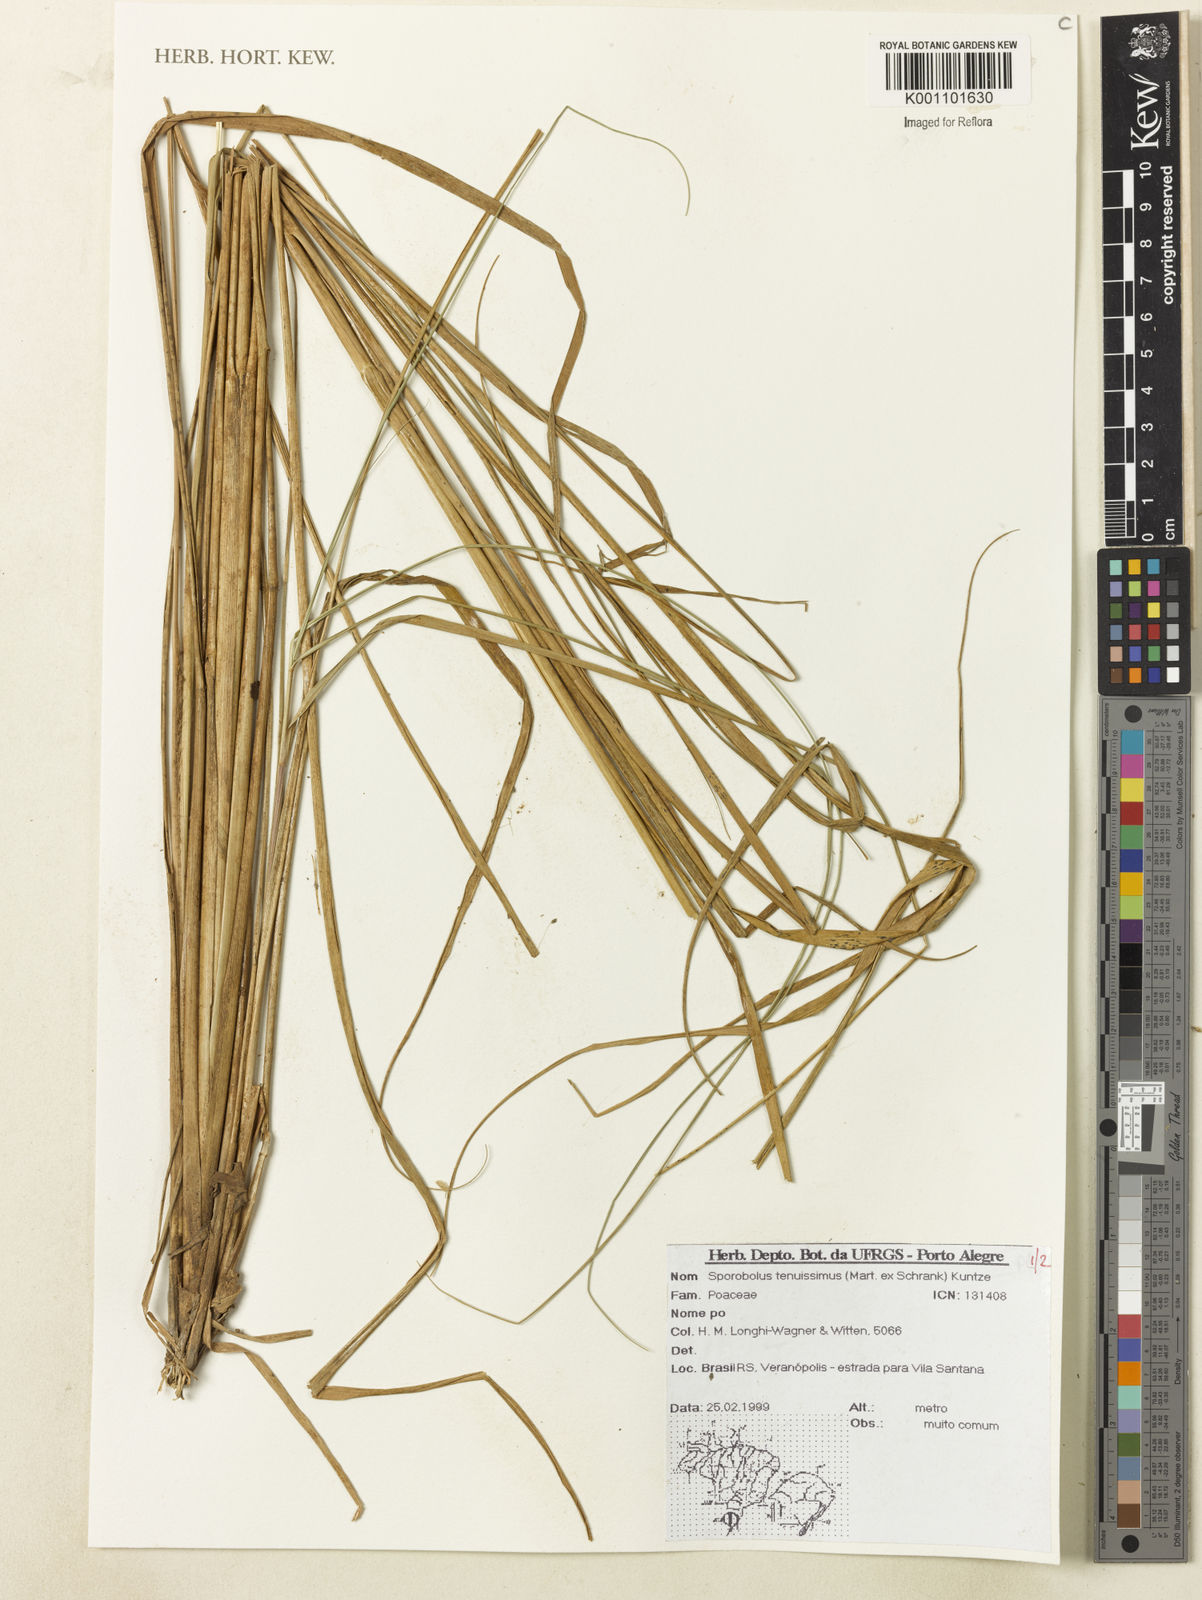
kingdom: Plantae
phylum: Tracheophyta
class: Liliopsida
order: Poales
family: Poaceae
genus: Sporobolus
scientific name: Sporobolus tenuissimus
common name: Tropical dropseed
